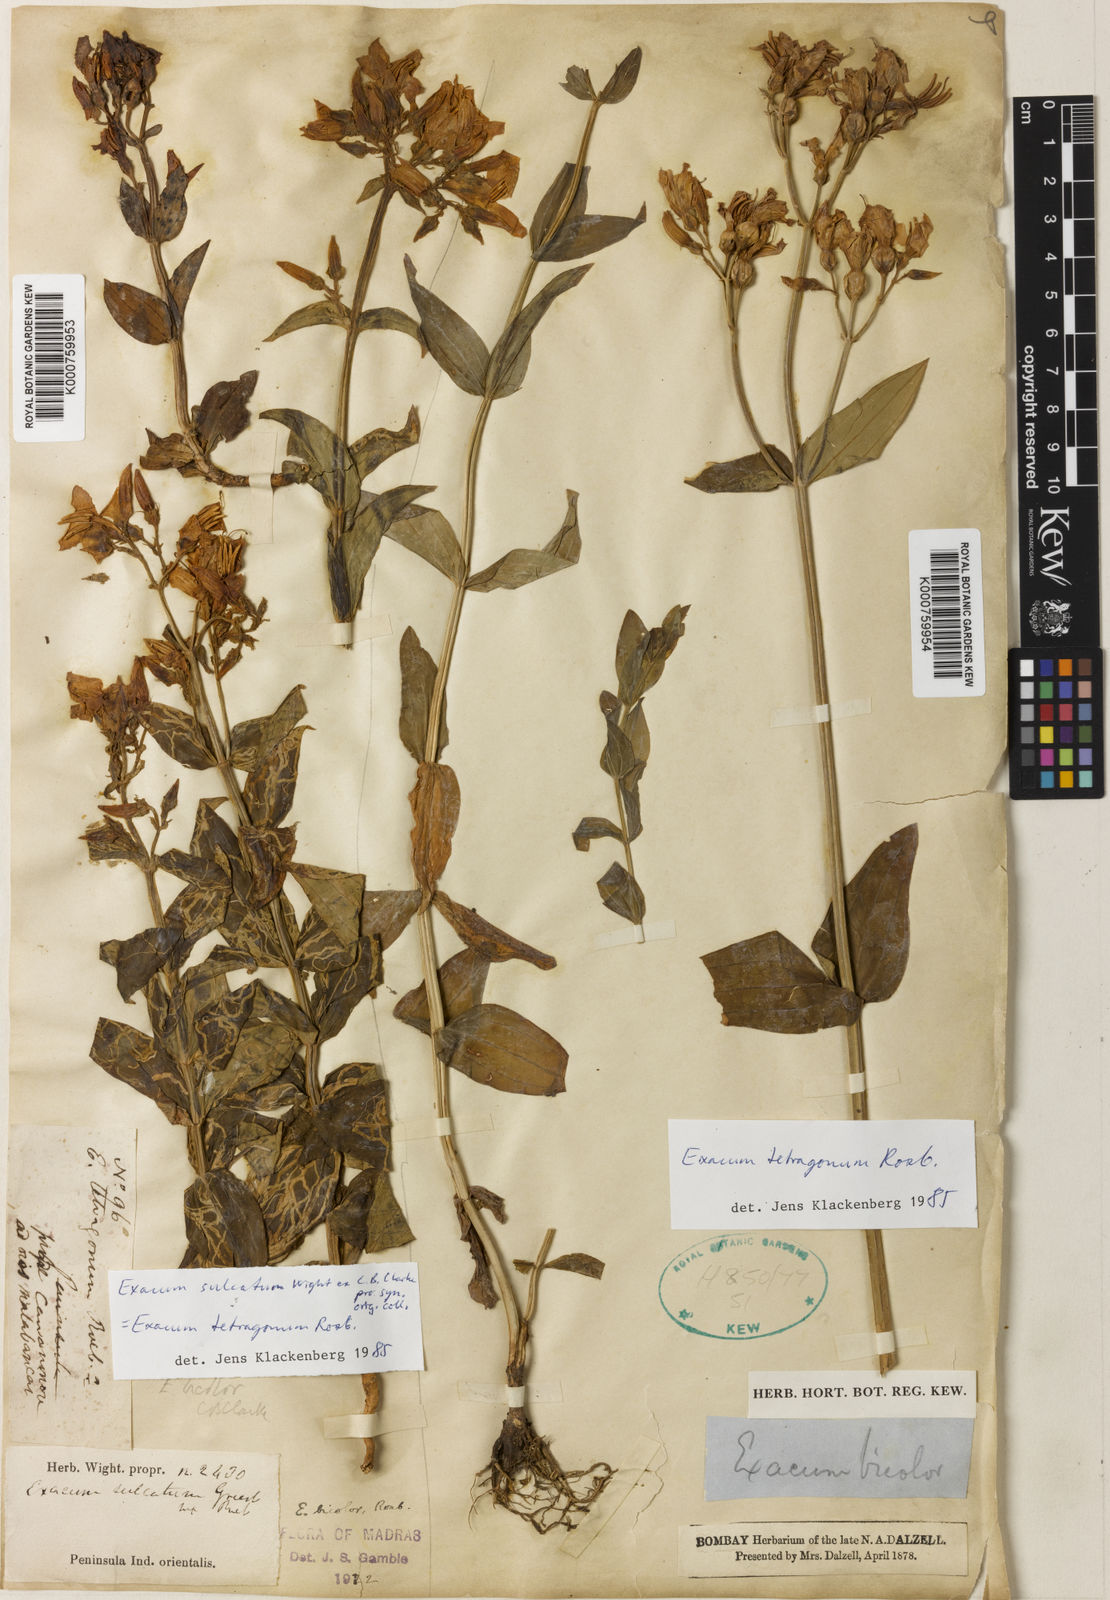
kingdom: Plantae
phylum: Tracheophyta
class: Magnoliopsida
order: Gentianales
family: Gentianaceae
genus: Exacum
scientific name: Exacum tetragonum
